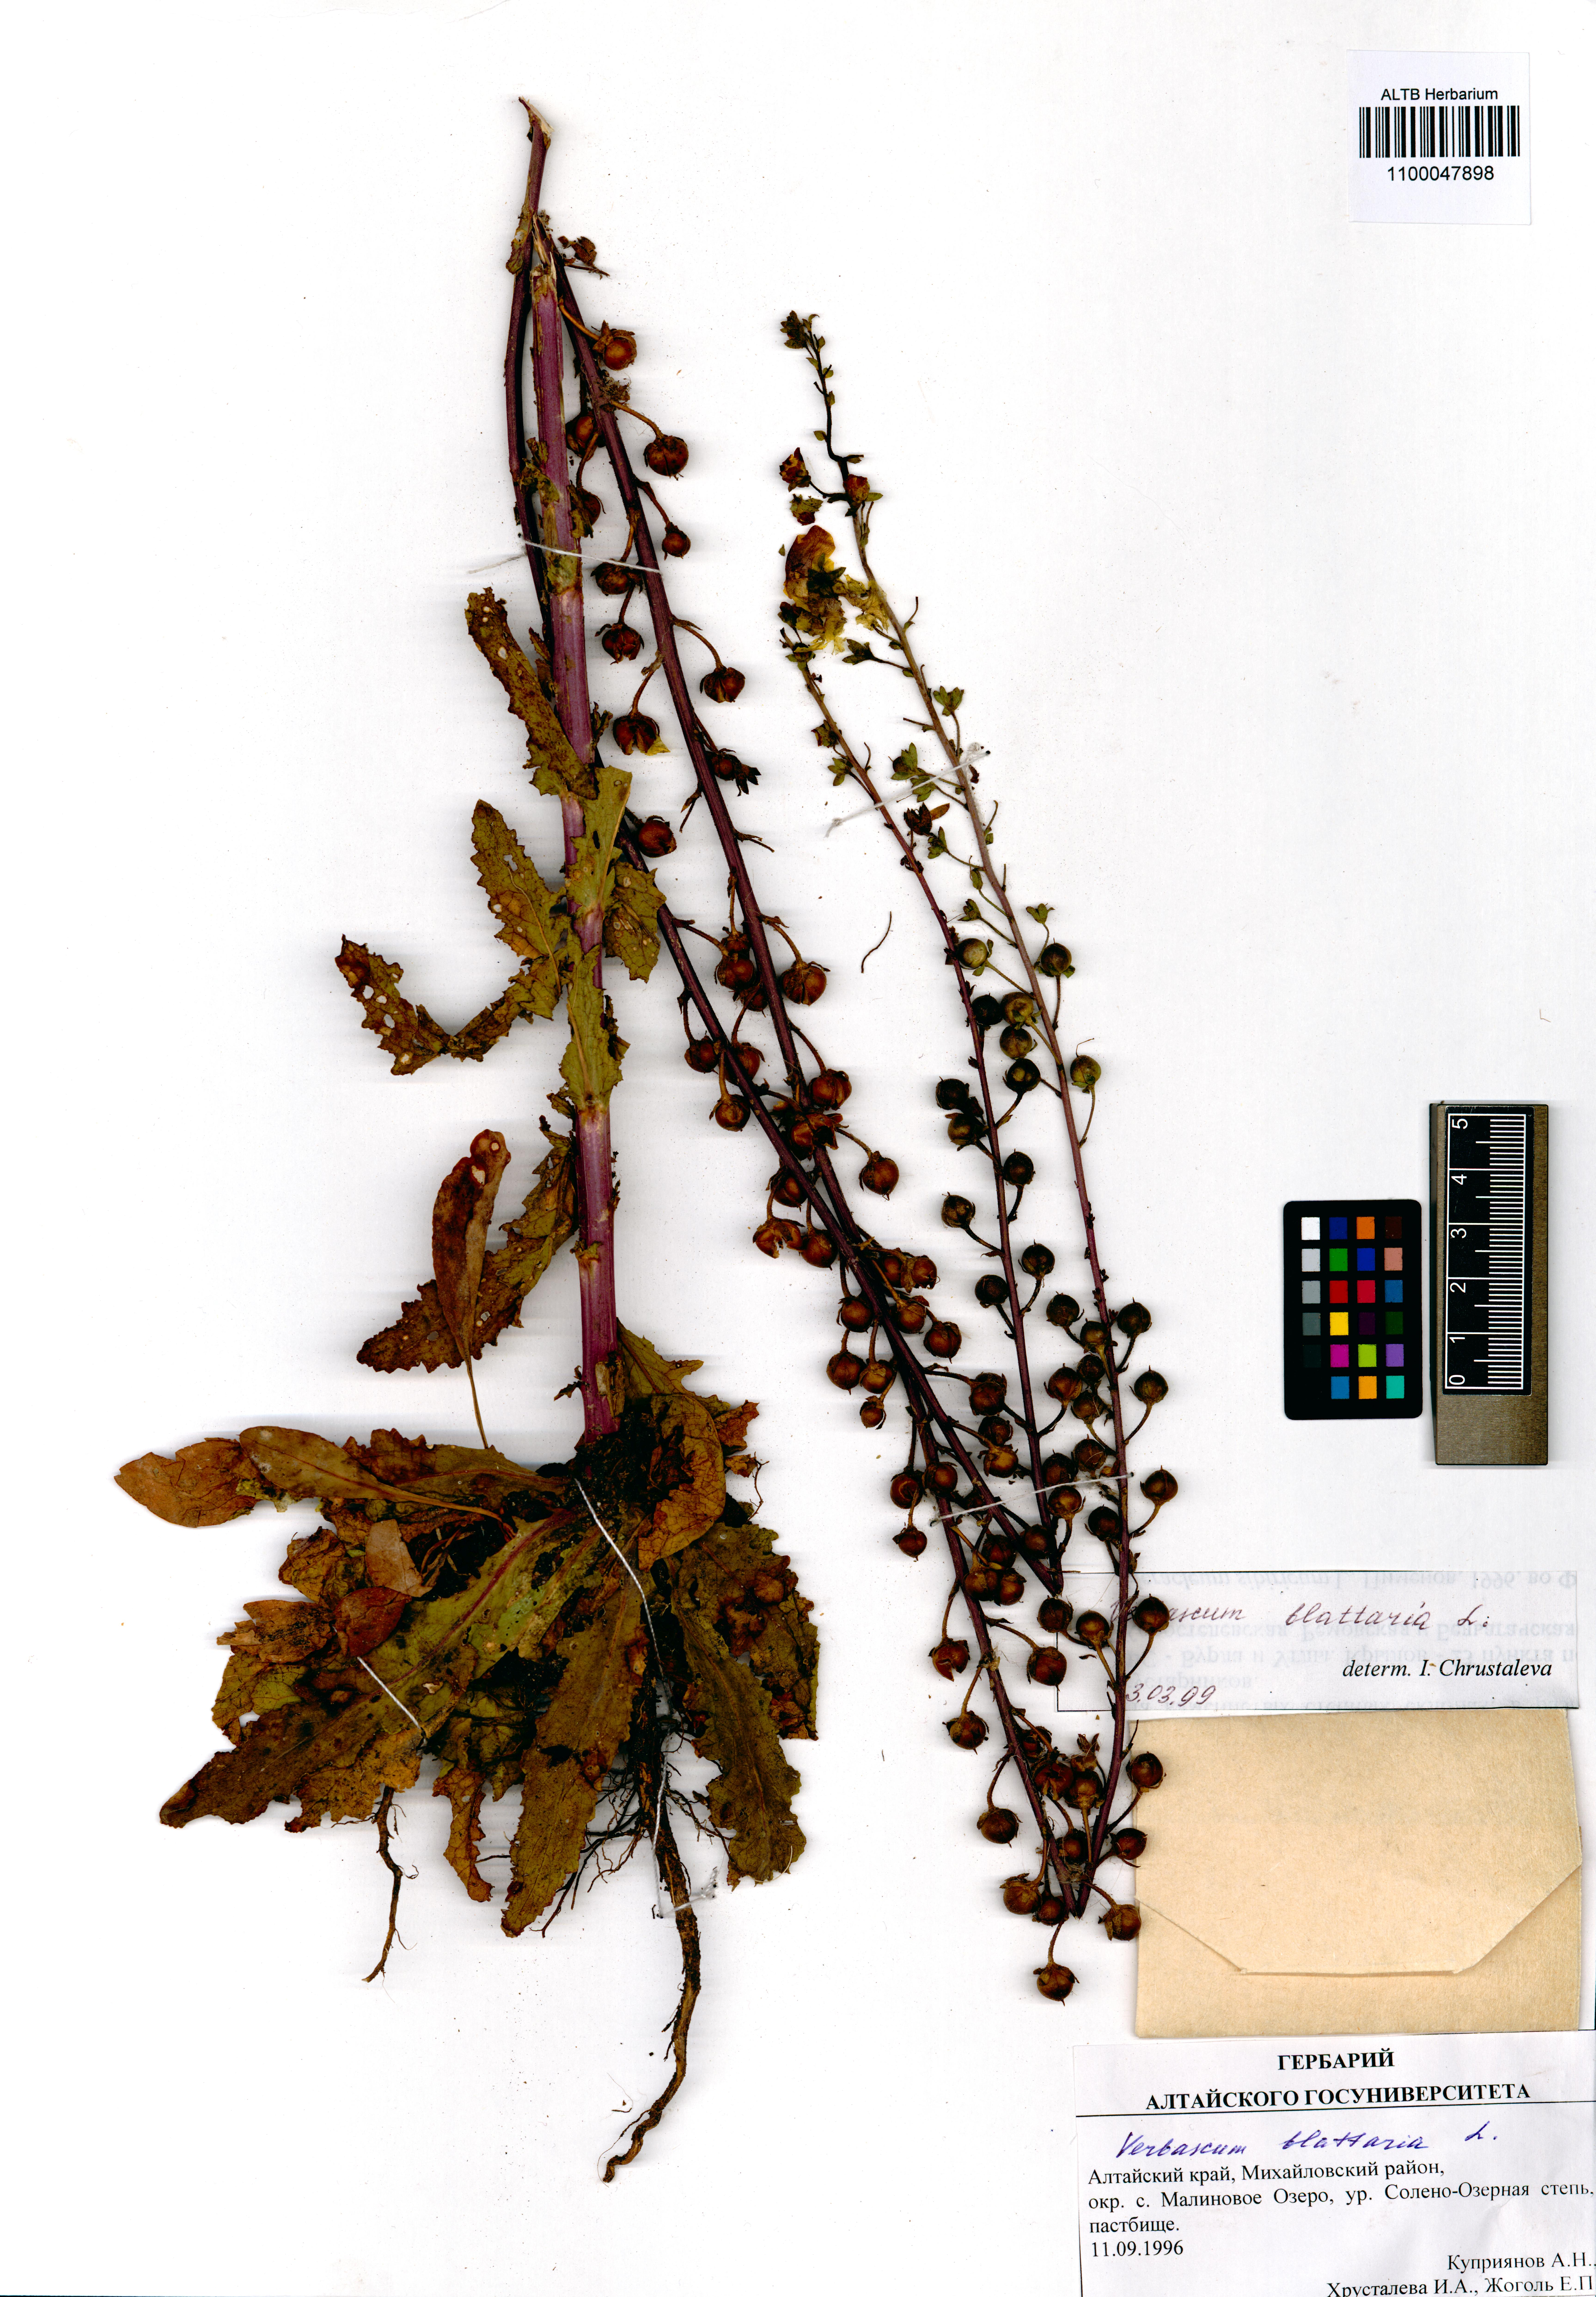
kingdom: Plantae
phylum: Tracheophyta
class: Magnoliopsida
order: Lamiales
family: Scrophulariaceae
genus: Verbascum
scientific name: Verbascum blattaria
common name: Moth mullein
